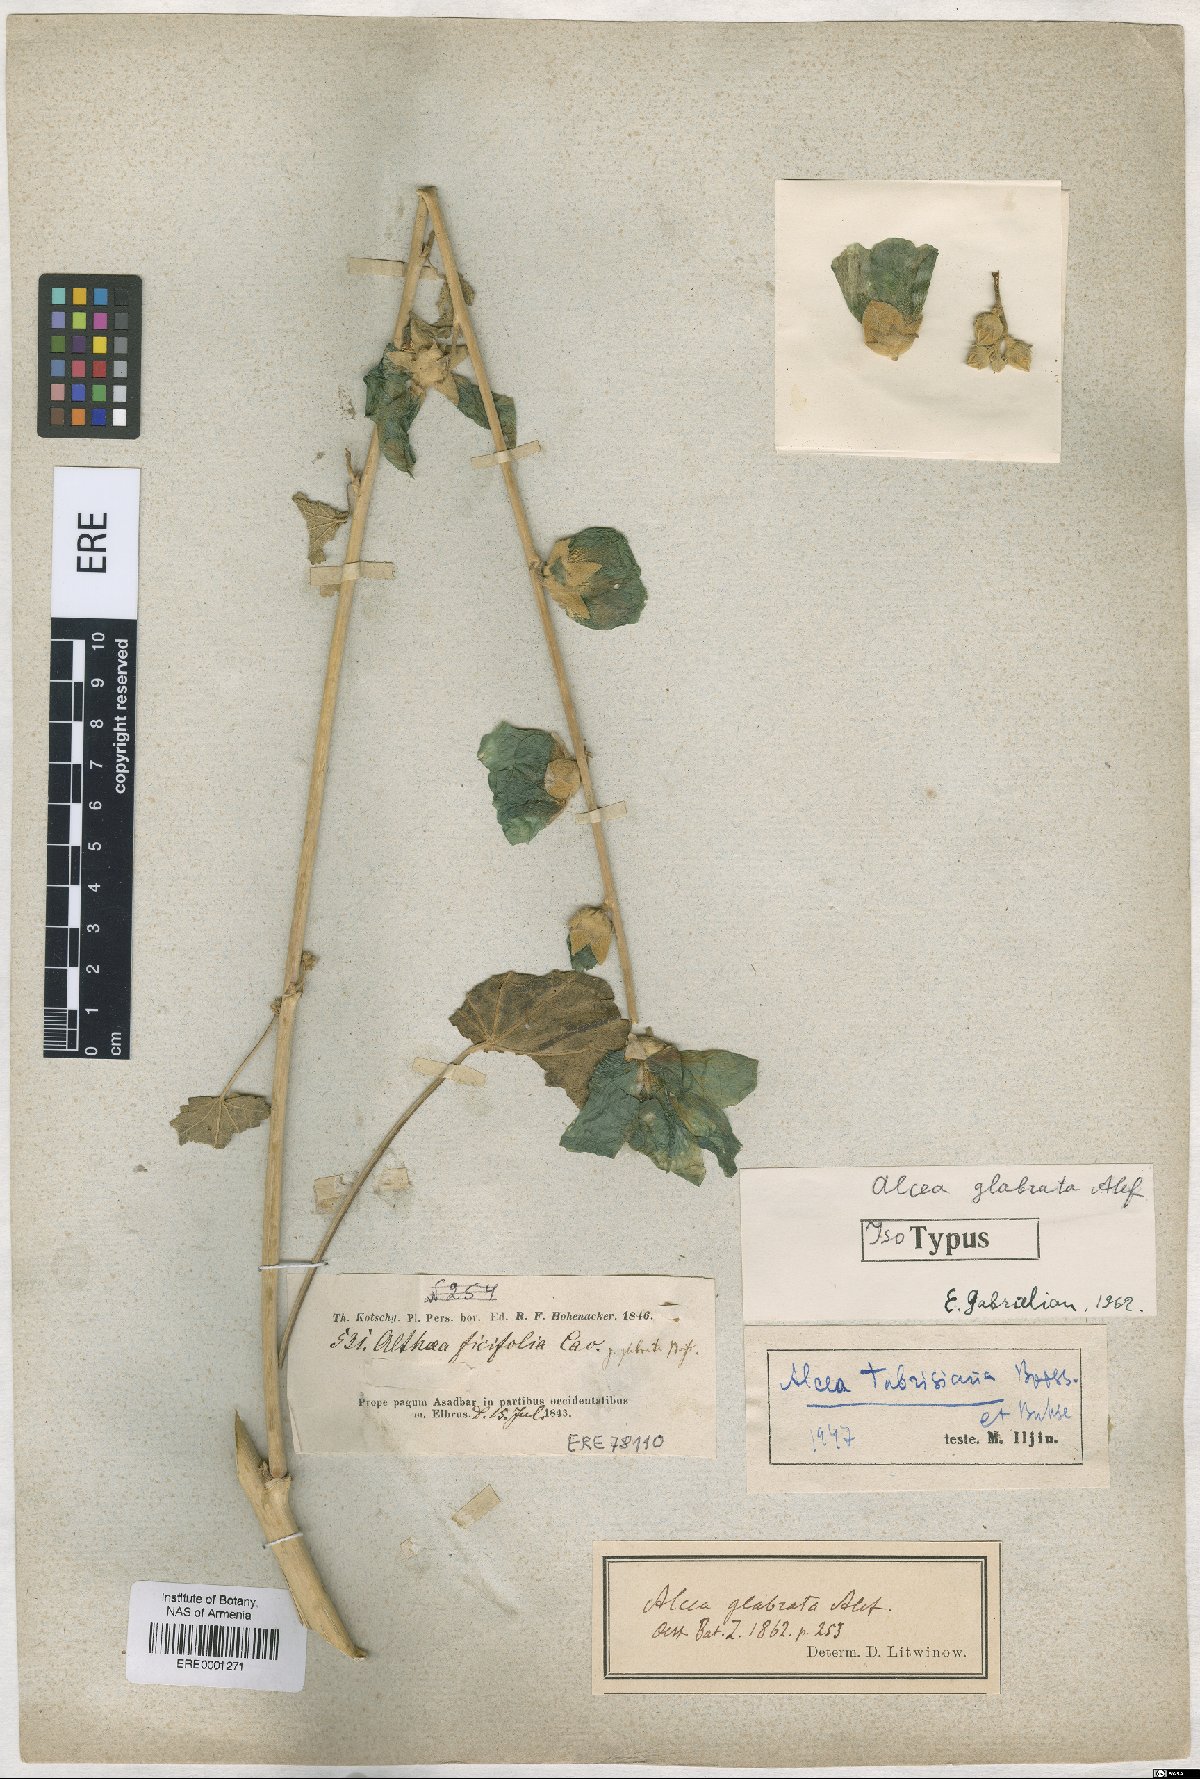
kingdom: Plantae
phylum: Tracheophyta
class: Magnoliopsida
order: Malvales
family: Malvaceae
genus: Alcea
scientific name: Alcea glabrata
